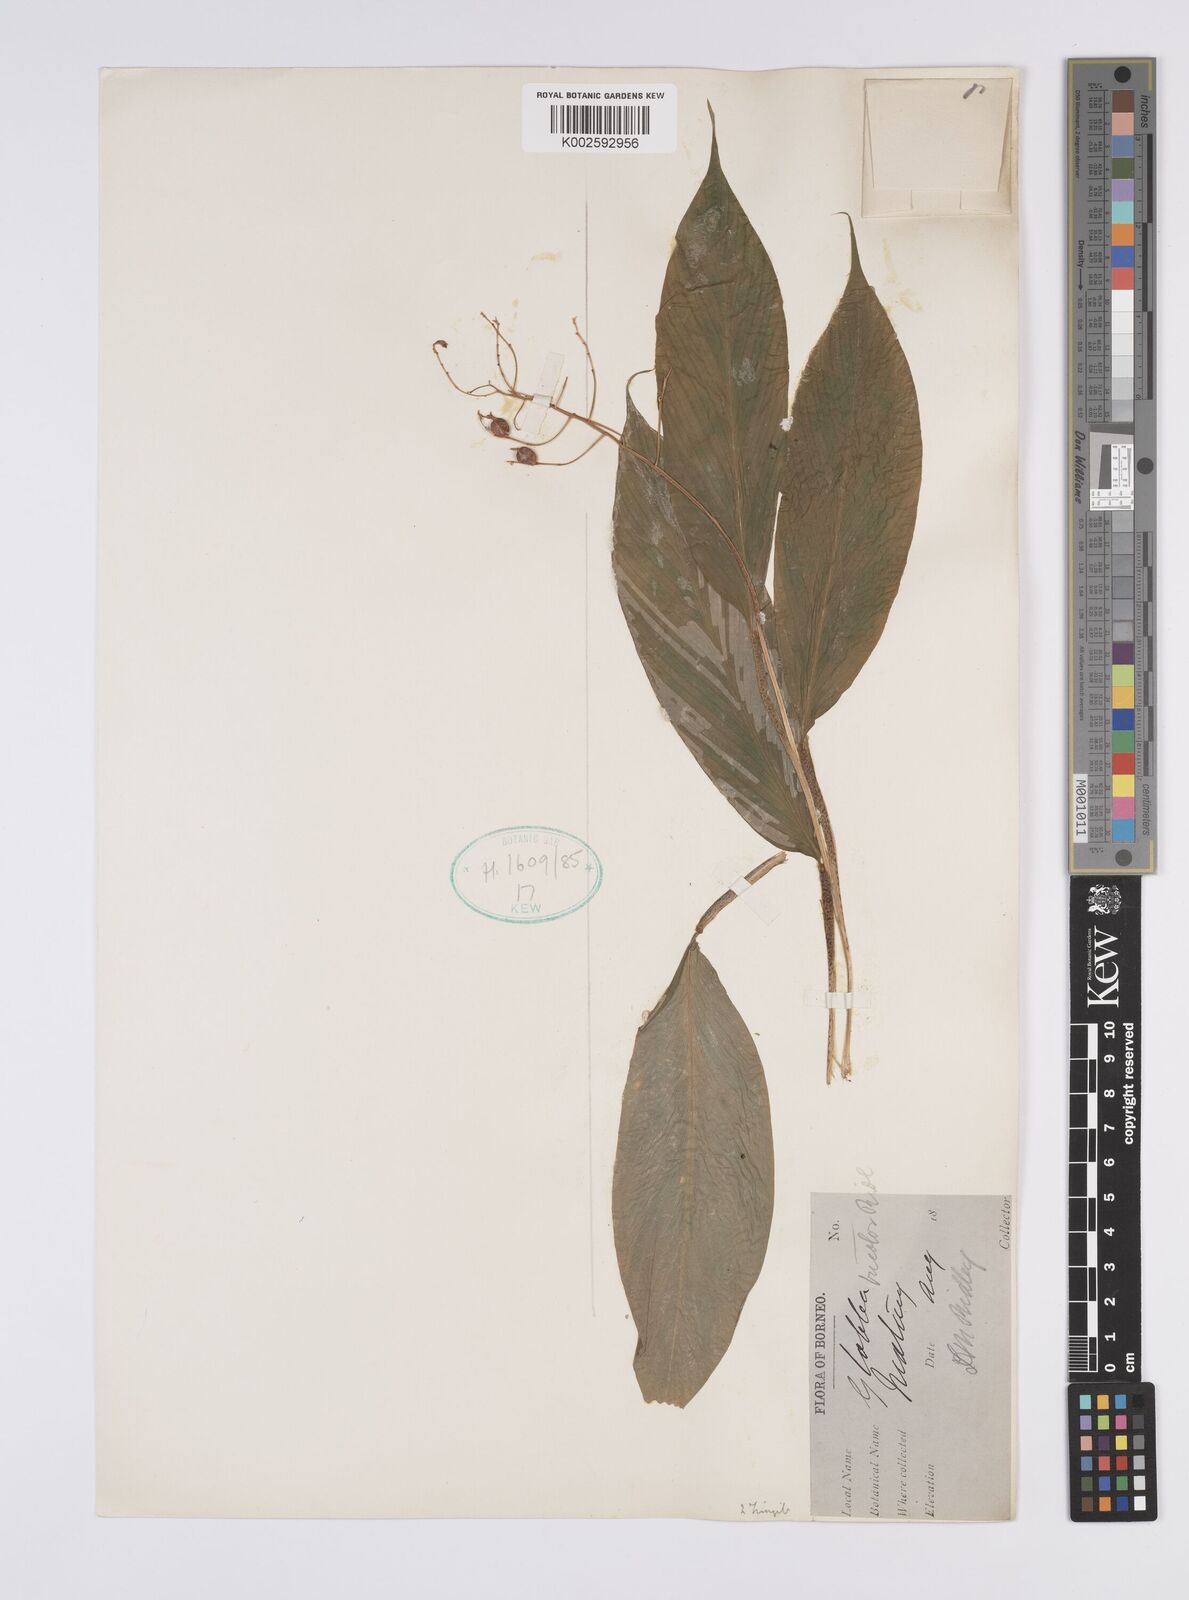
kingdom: Plantae
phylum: Tracheophyta
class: Liliopsida
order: Zingiberales
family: Zingiberaceae
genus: Globba
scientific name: Globba tricolor
